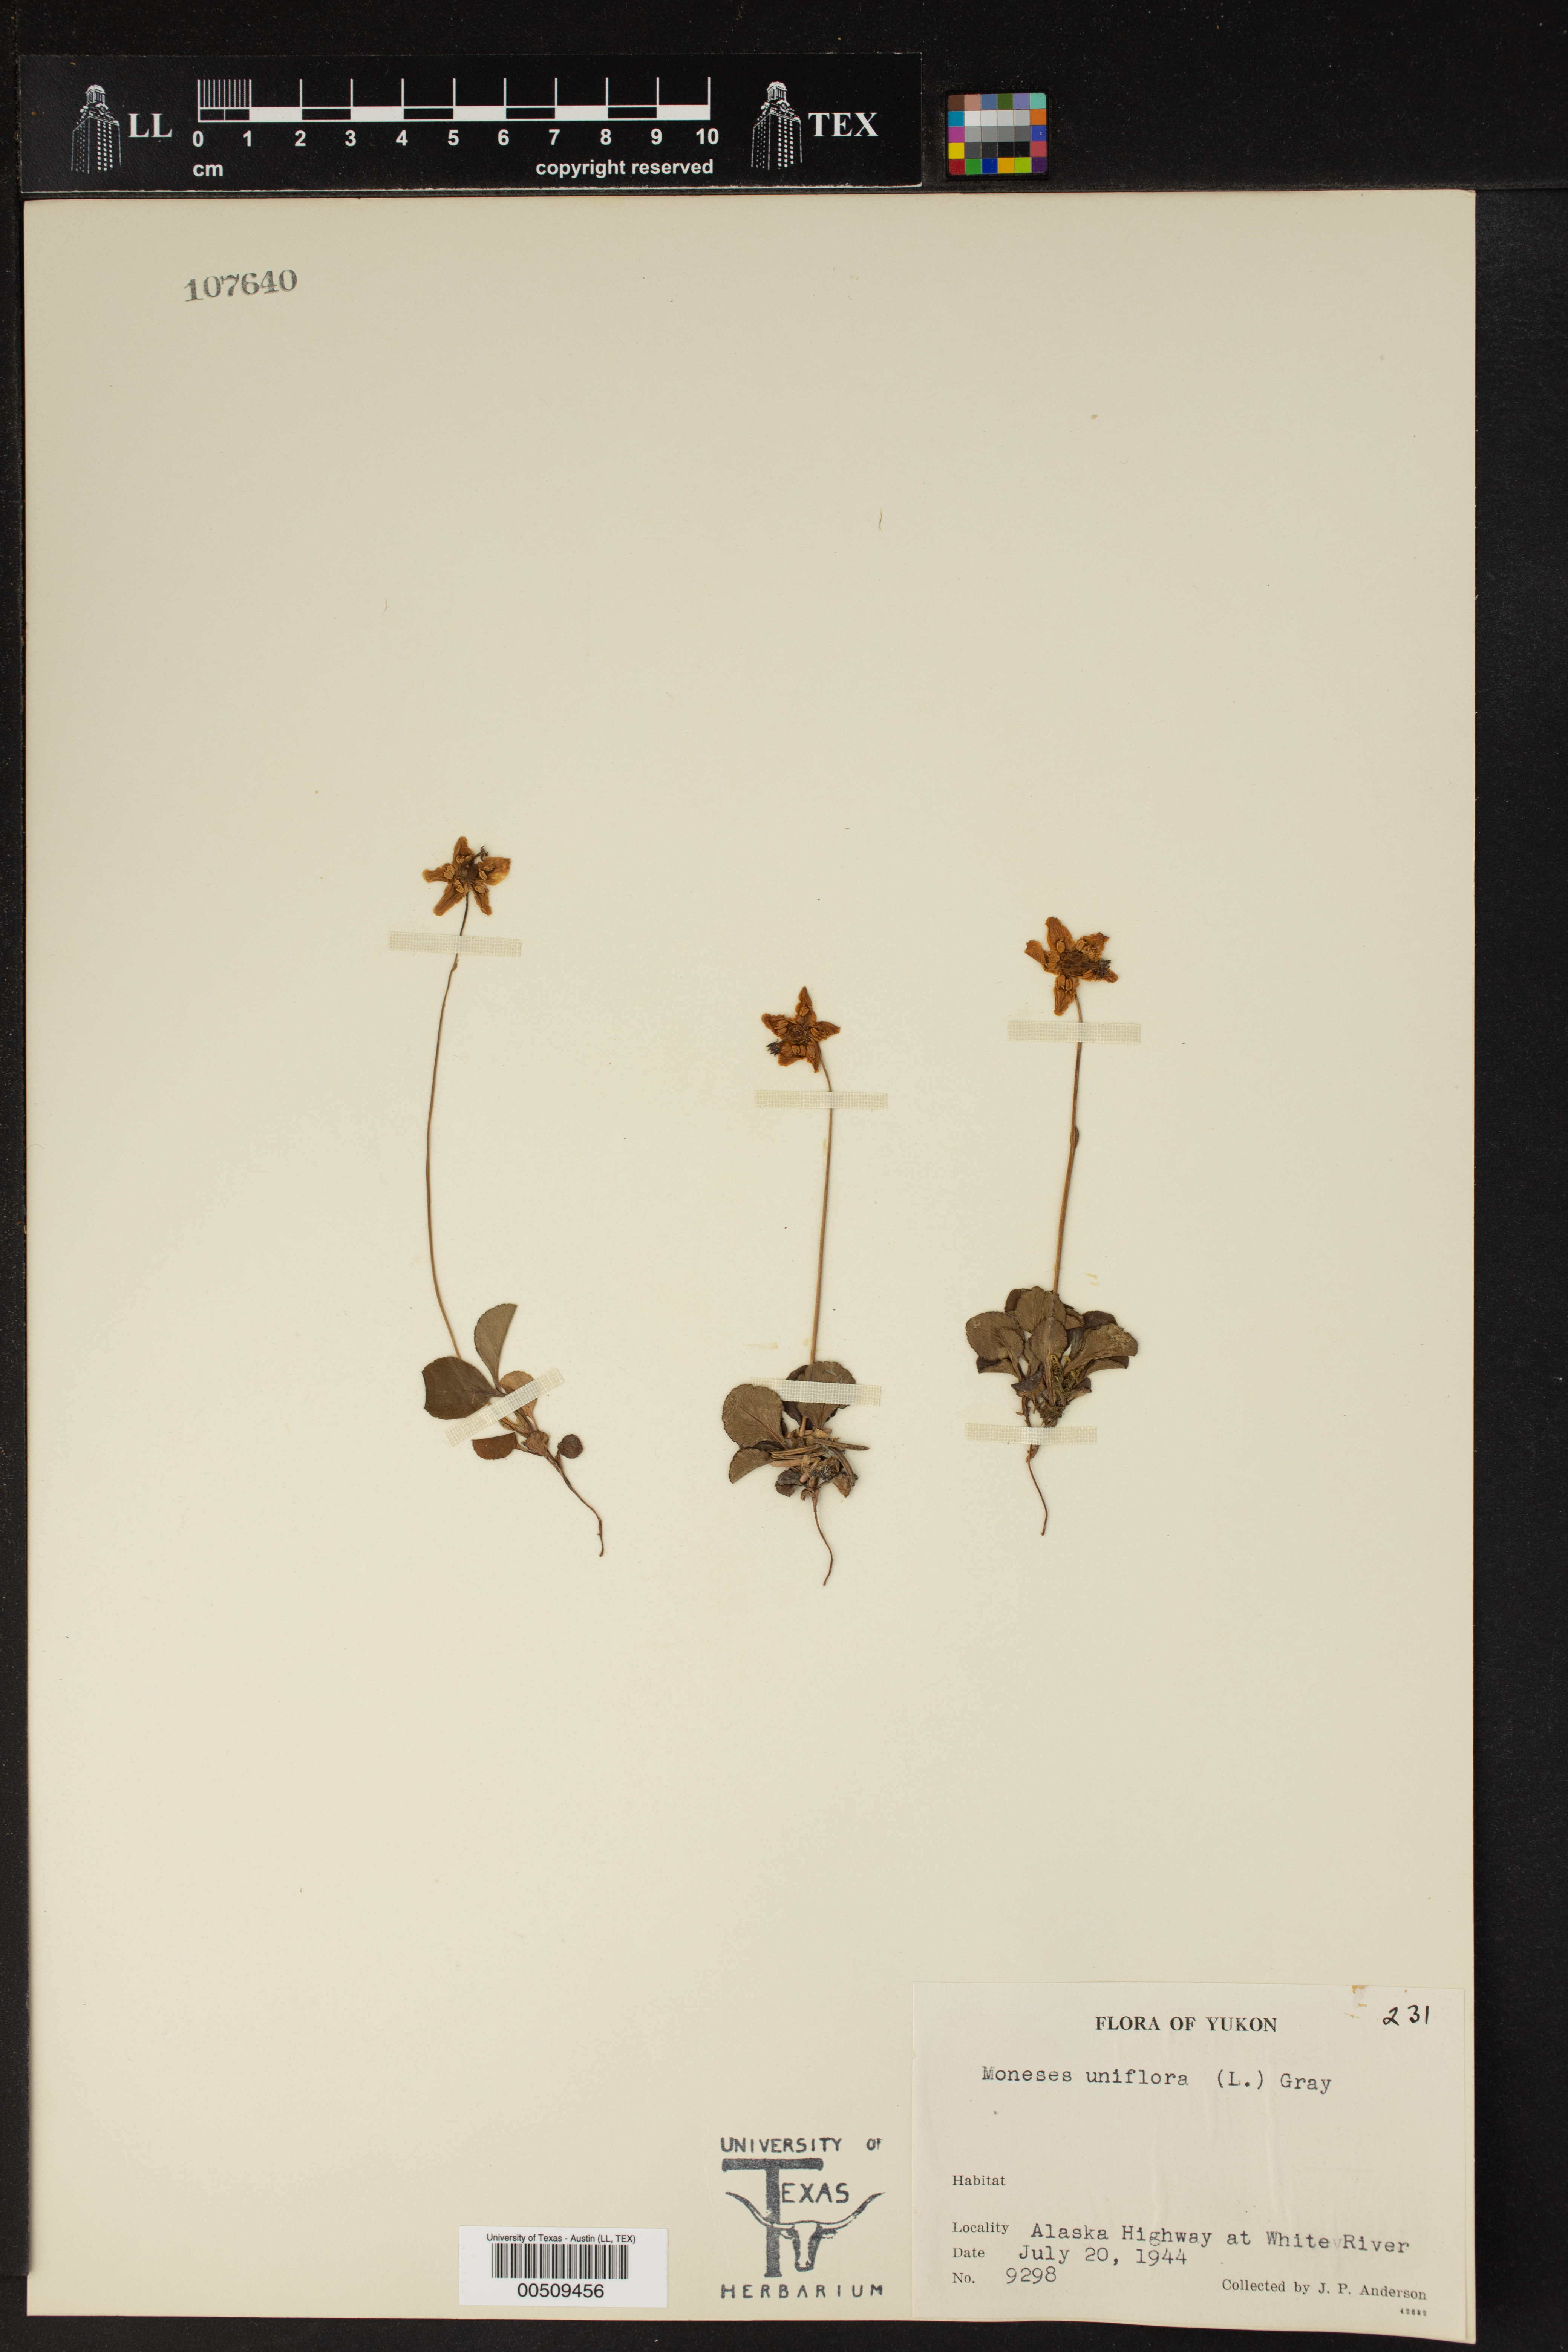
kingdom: Plantae
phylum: Tracheophyta
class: Magnoliopsida
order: Ericales
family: Ericaceae
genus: Moneses
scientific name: Moneses uniflora
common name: One-flowered wintergreen
